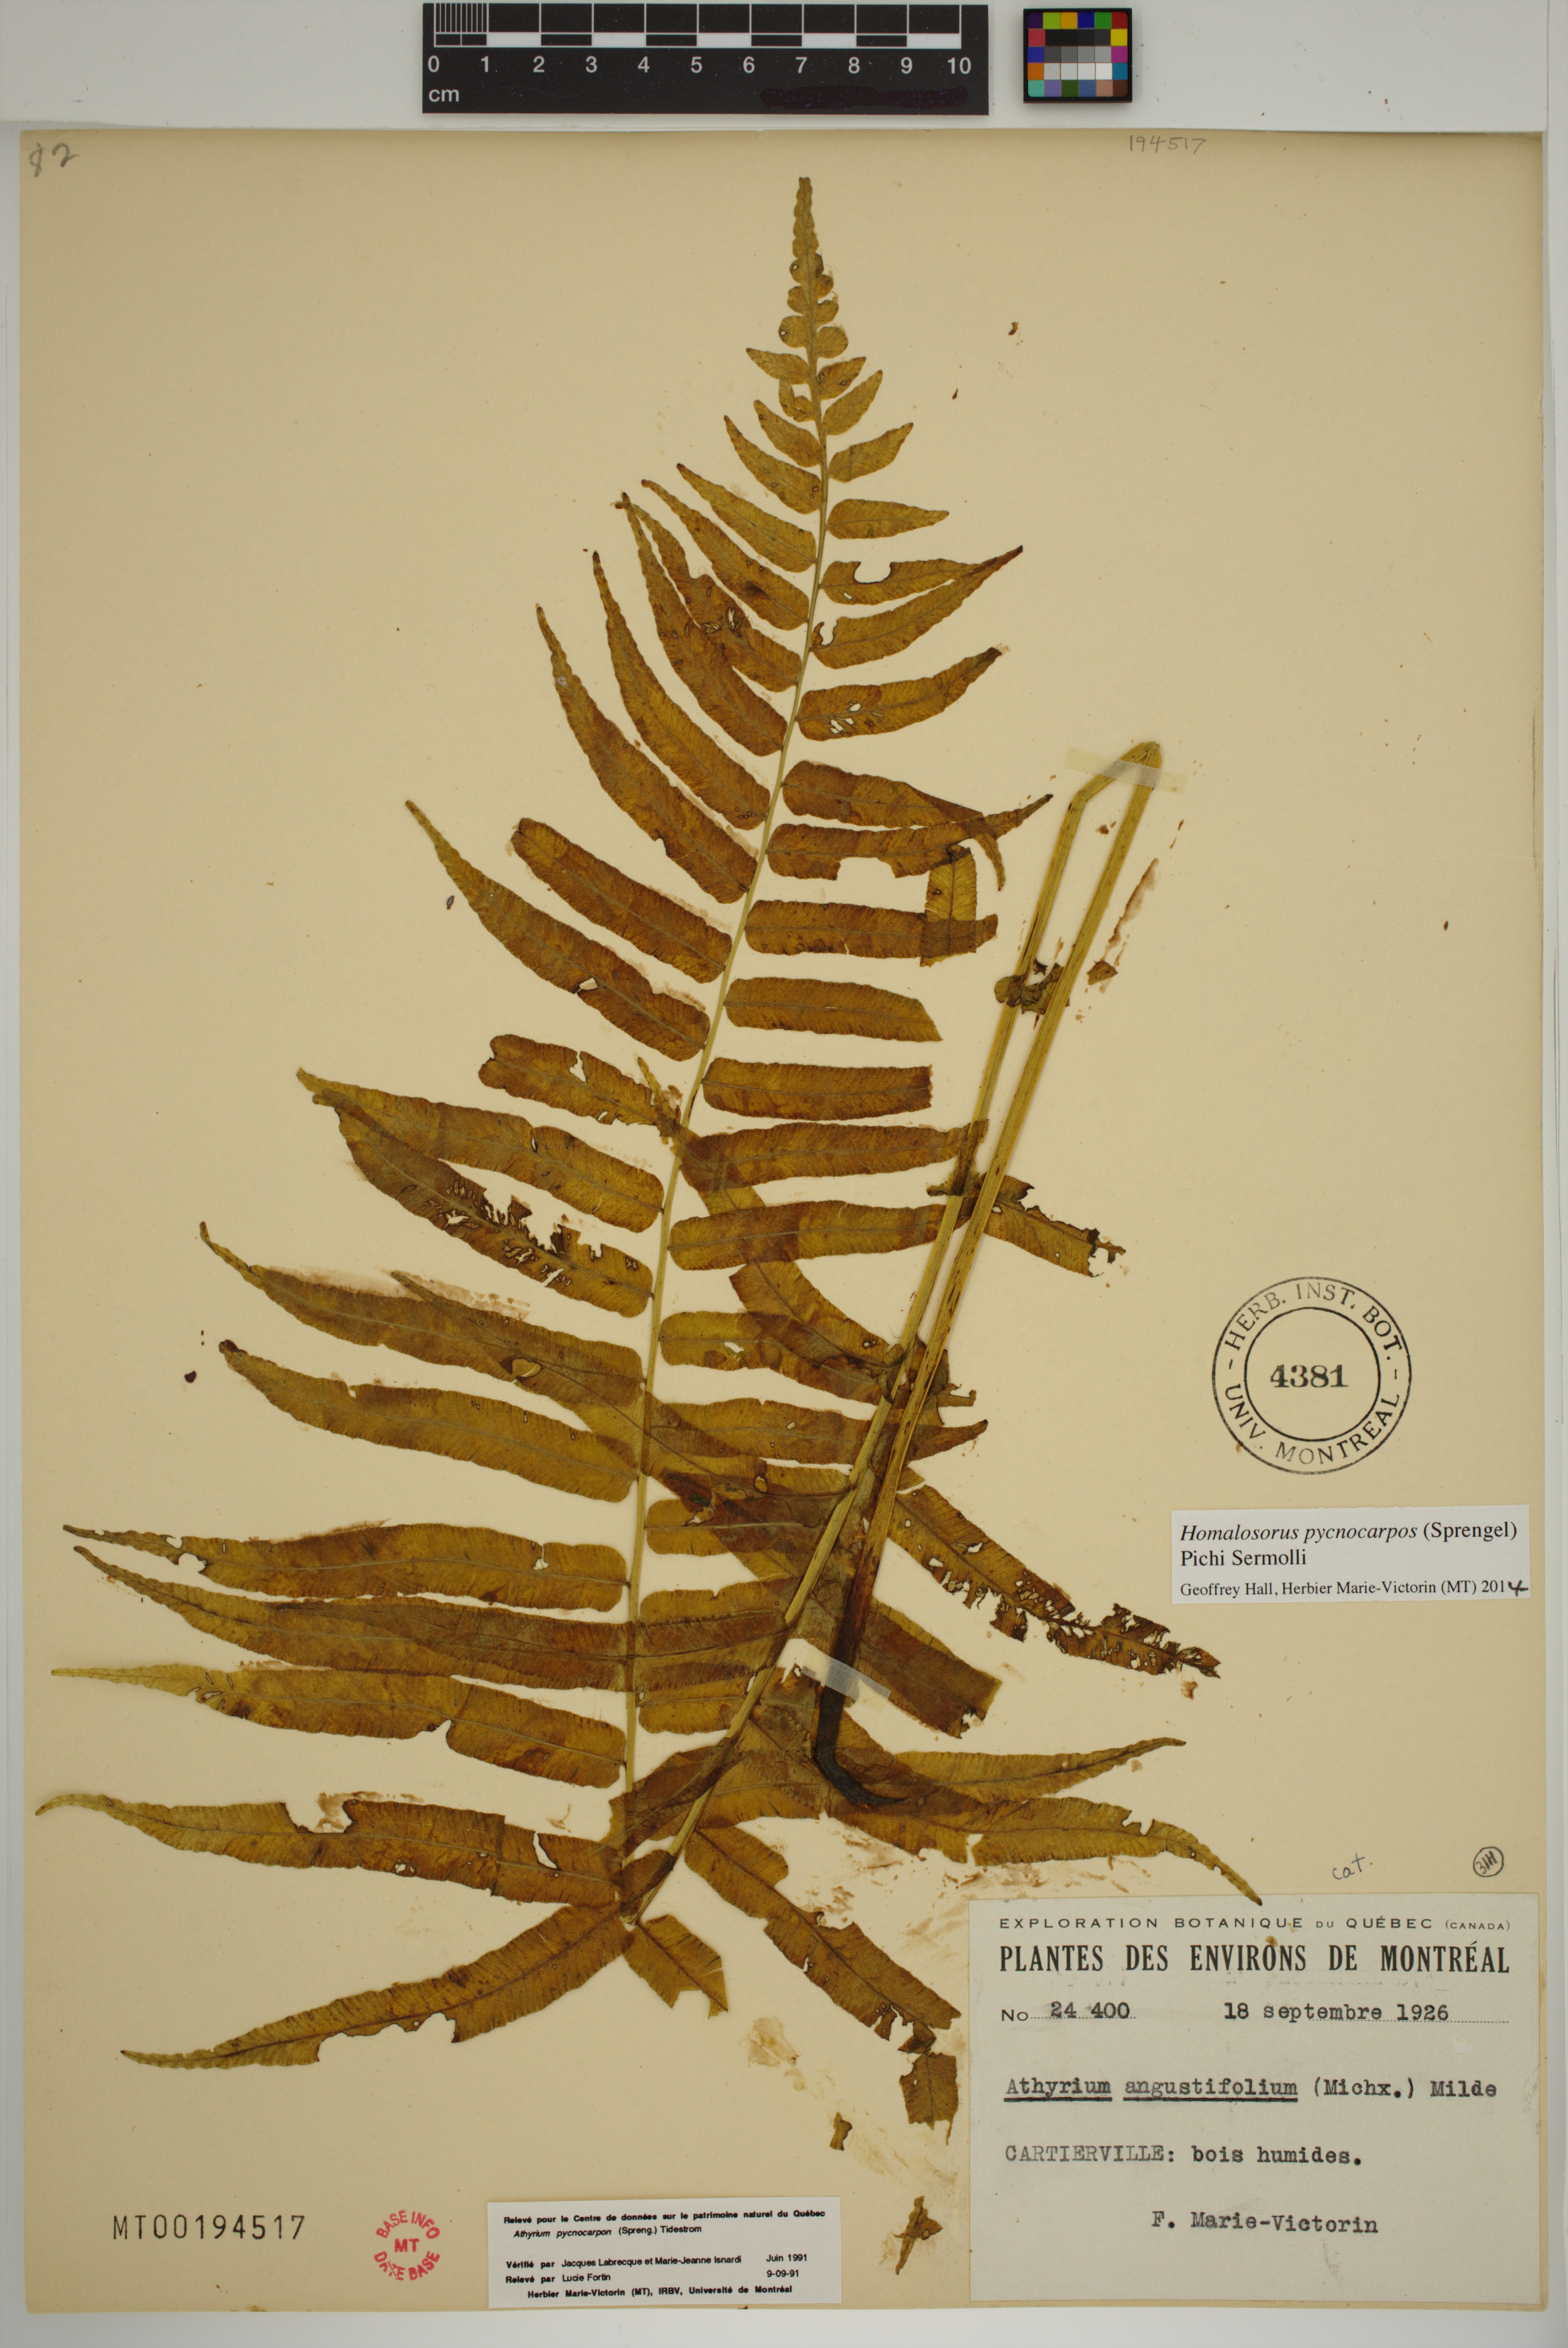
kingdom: Plantae
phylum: Tracheophyta
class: Polypodiopsida
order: Polypodiales
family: Diplaziopsidaceae
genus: Homalosorus
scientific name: Homalosorus pycnocarpos
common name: Glade fern
